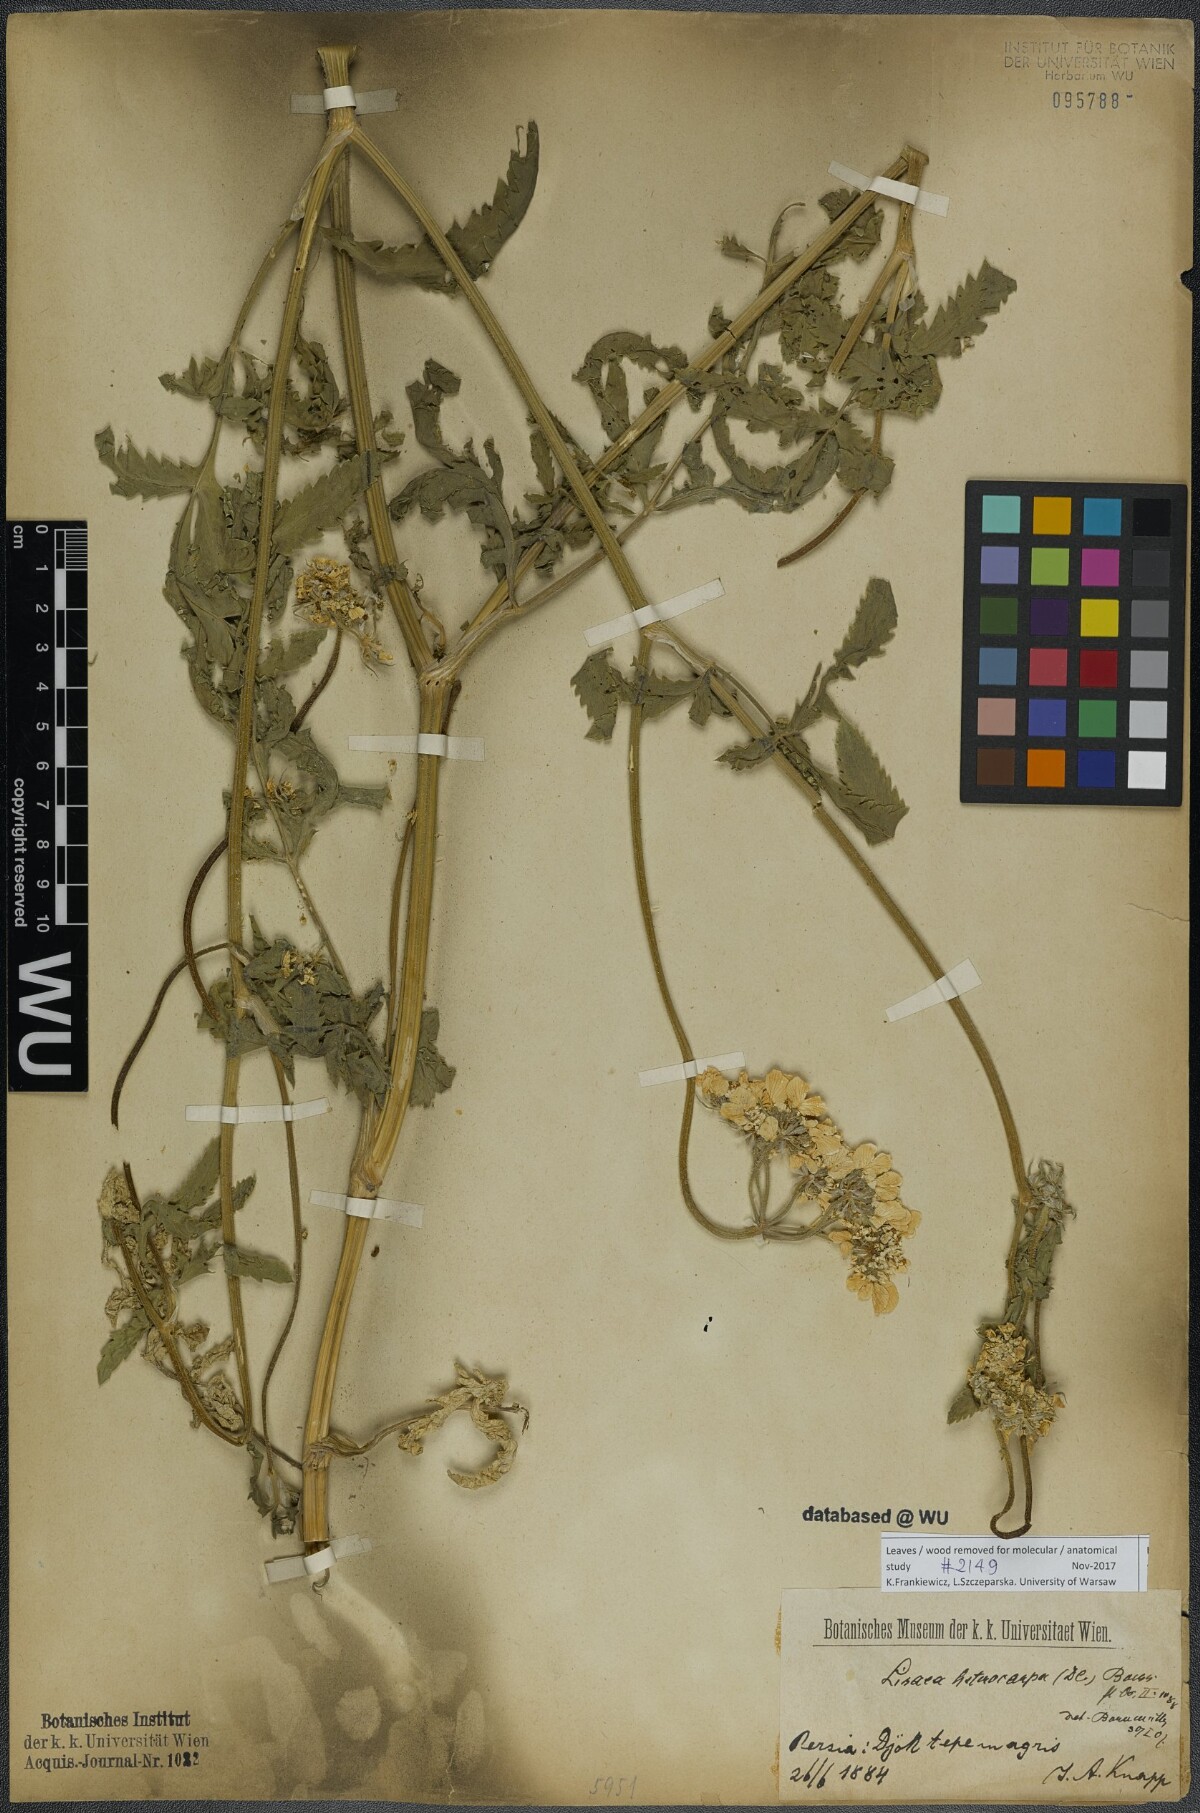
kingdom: Plantae
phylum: Tracheophyta
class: Magnoliopsida
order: Apiales
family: Apiaceae
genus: Lisaea
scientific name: Lisaea heterocarpa
